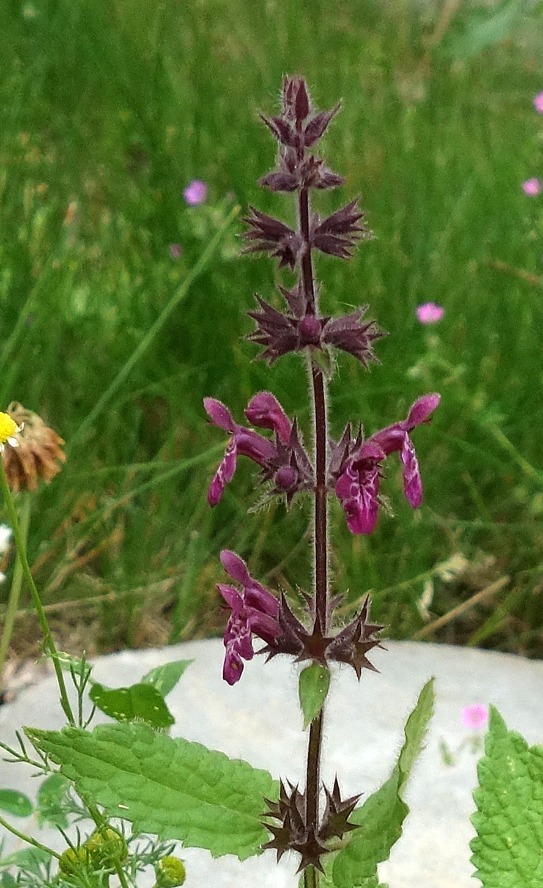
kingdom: Plantae
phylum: Tracheophyta
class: Magnoliopsida
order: Lamiales
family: Lamiaceae
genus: Stachys
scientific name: Stachys sylvatica
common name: Skov-galtetand
